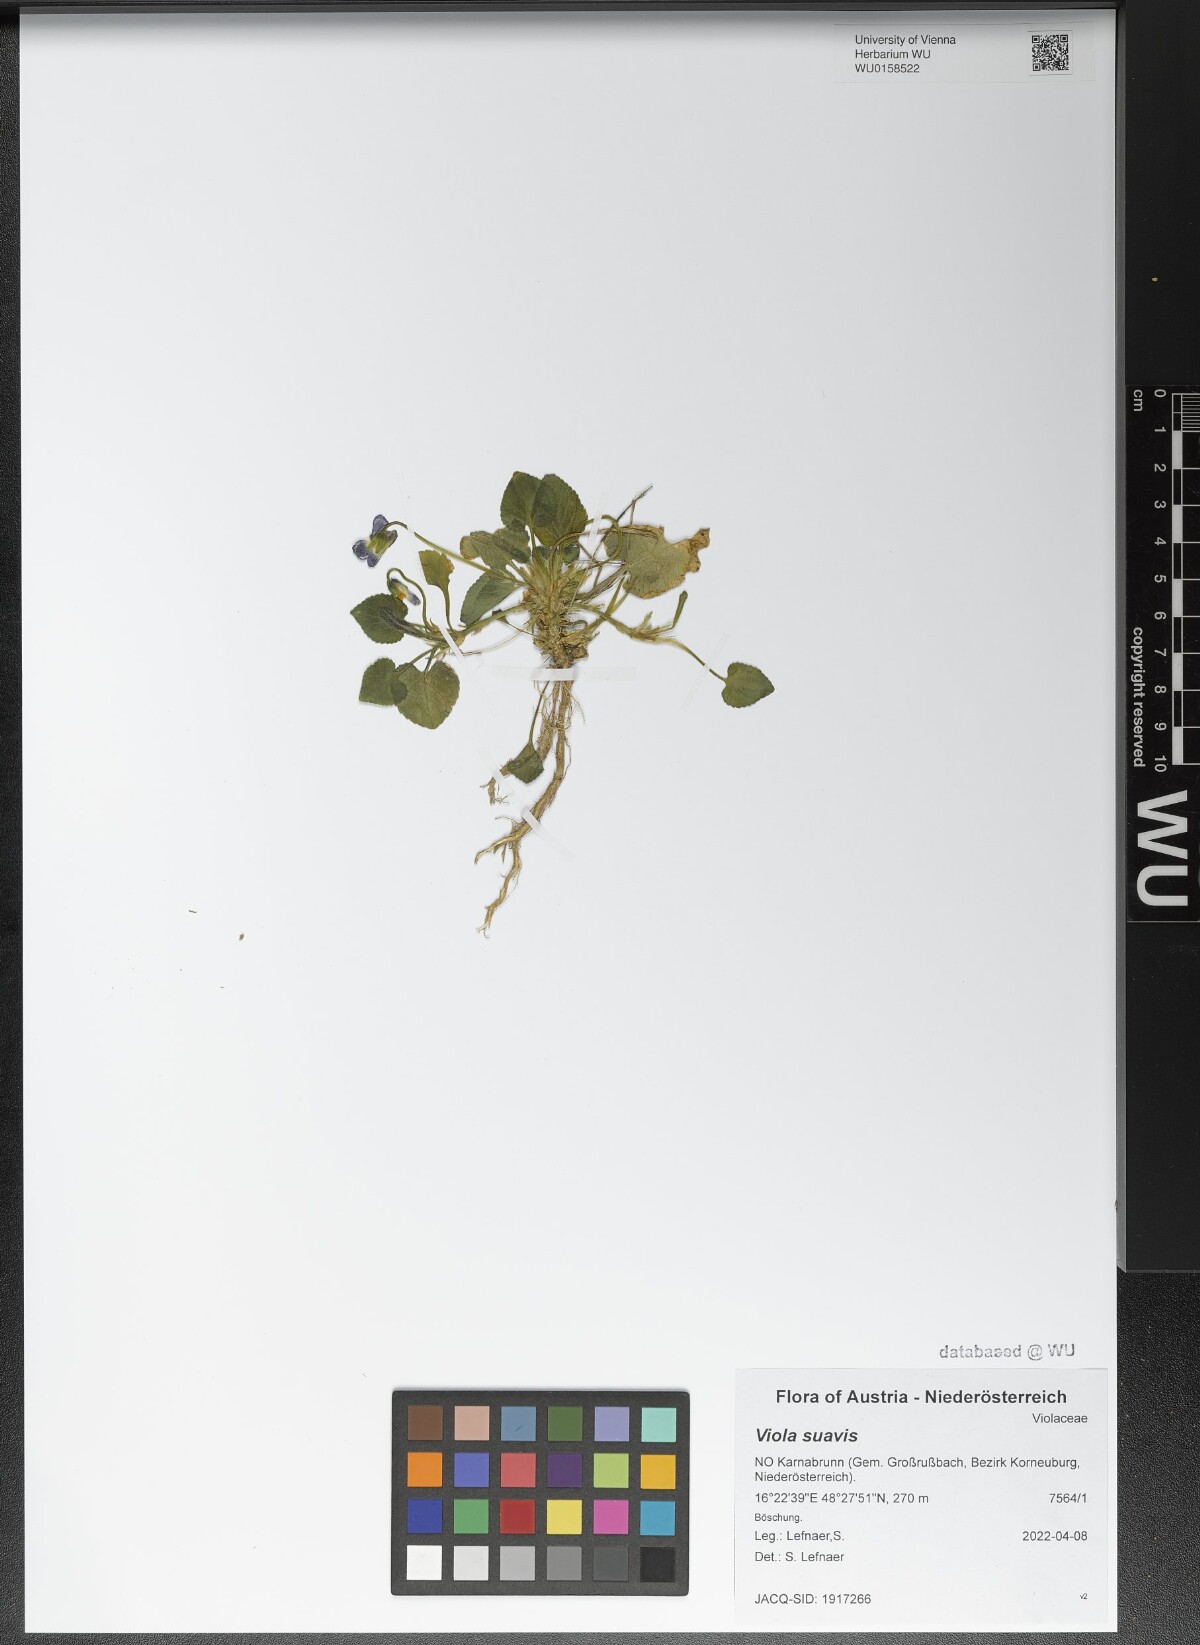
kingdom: Plantae
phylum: Tracheophyta
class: Magnoliopsida
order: Malpighiales
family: Violaceae
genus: Viola
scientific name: Viola suavis
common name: Russian violet
